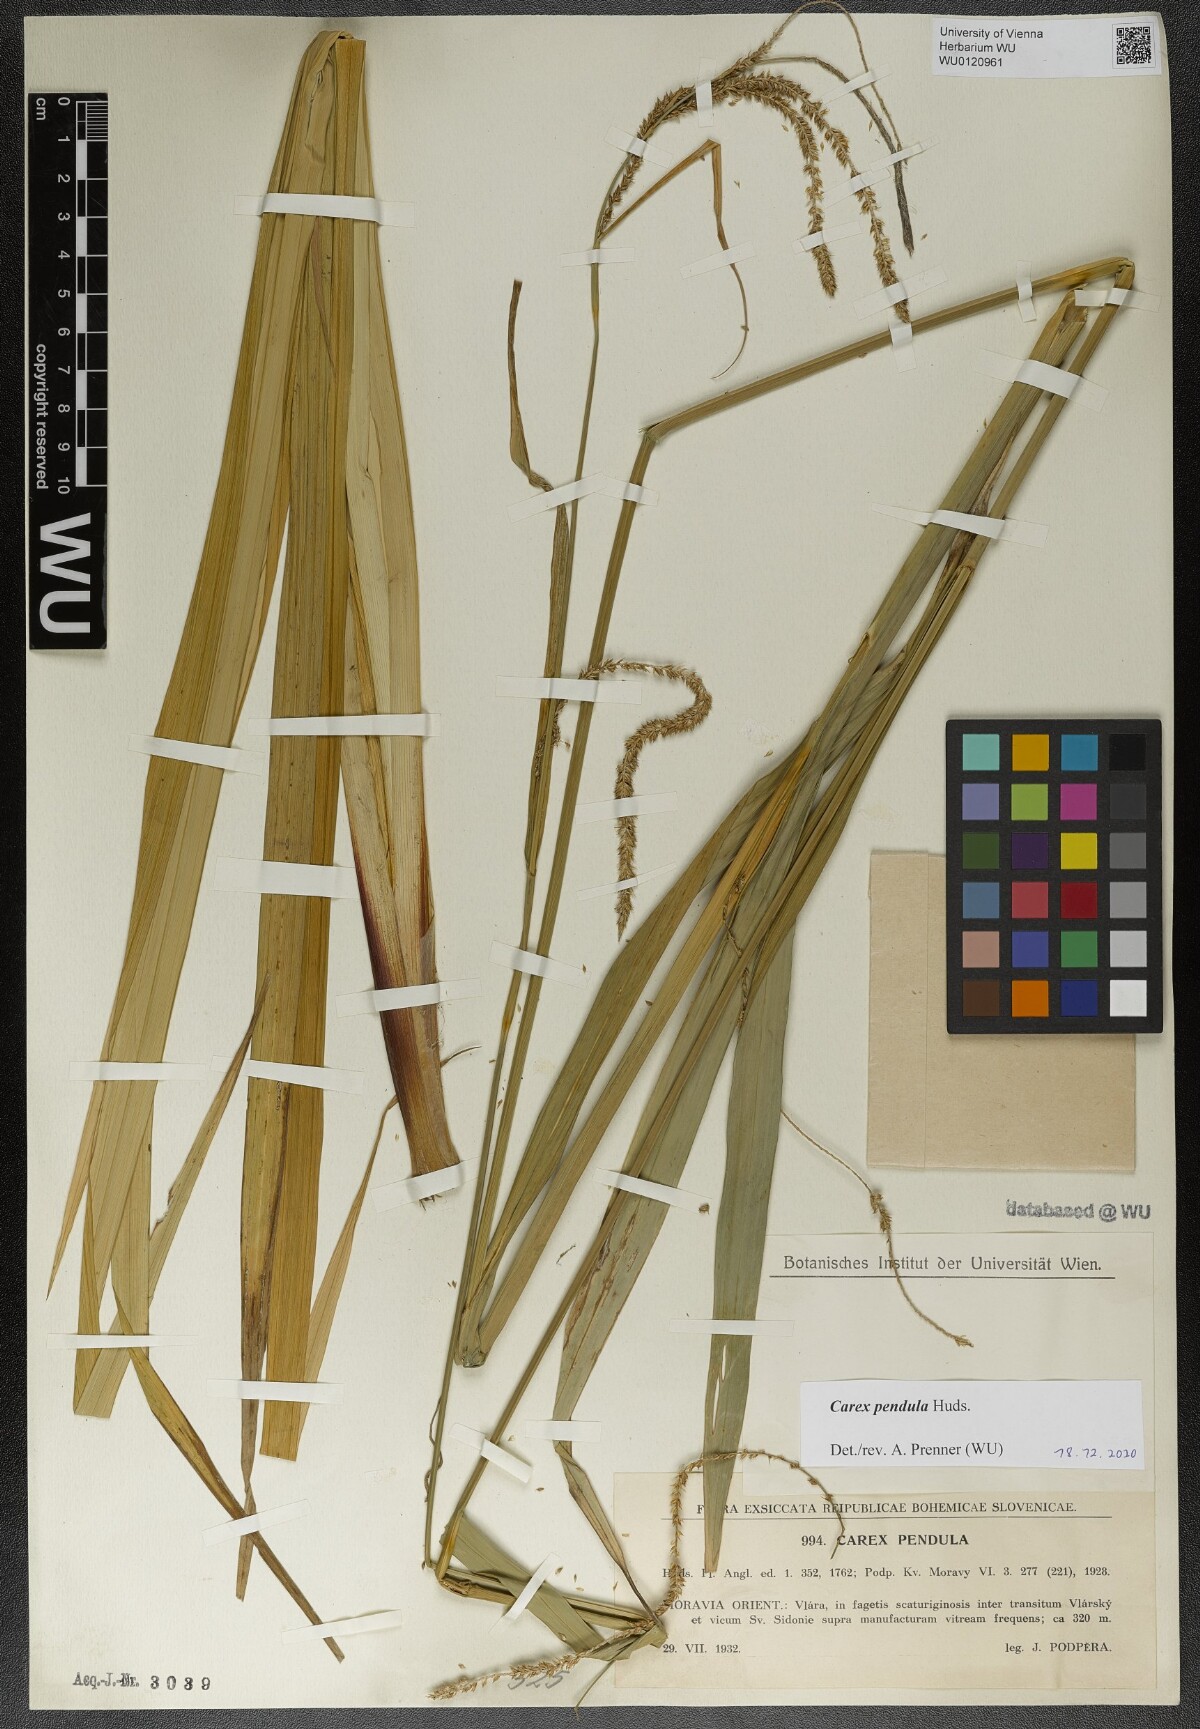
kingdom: Plantae
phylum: Tracheophyta
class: Liliopsida
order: Poales
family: Cyperaceae
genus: Carex
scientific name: Carex pendula
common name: Pendulous sedge
